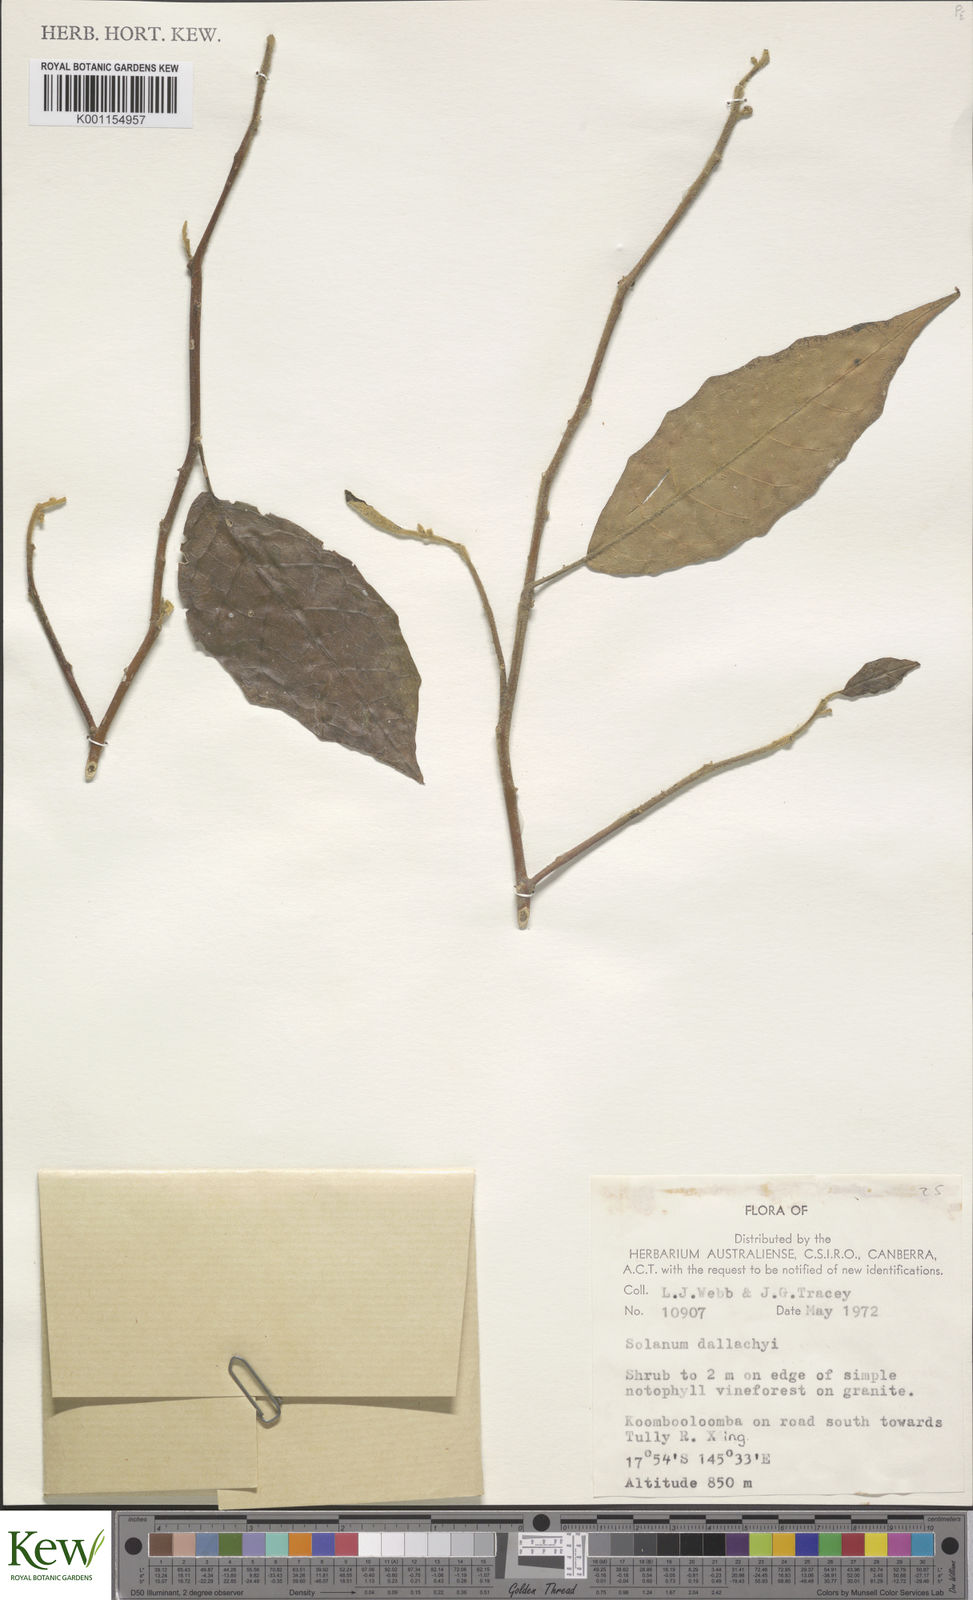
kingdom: Plantae
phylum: Tracheophyta
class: Magnoliopsida
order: Solanales
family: Solanaceae
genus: Solanum
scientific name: Solanum magnifolium
